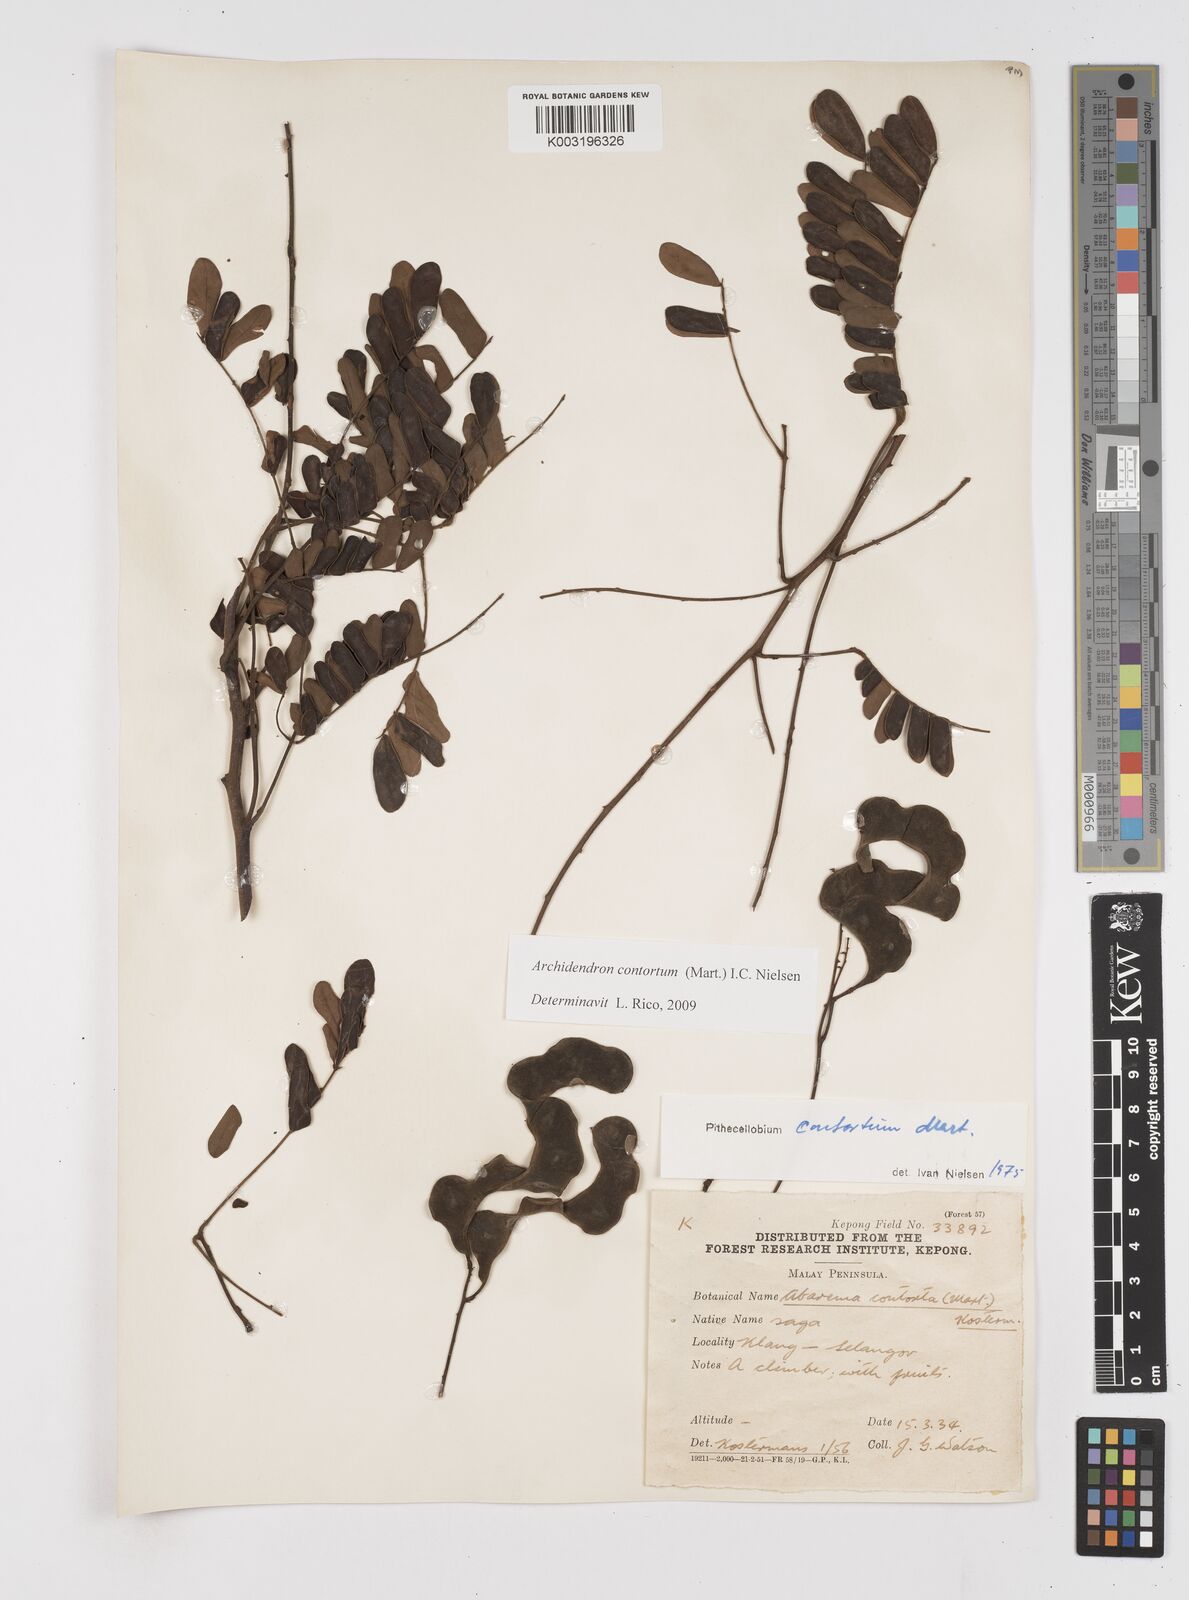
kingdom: Plantae
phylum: Tracheophyta
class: Magnoliopsida
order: Fabales
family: Fabaceae
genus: Archidendron
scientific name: Archidendron contortum
